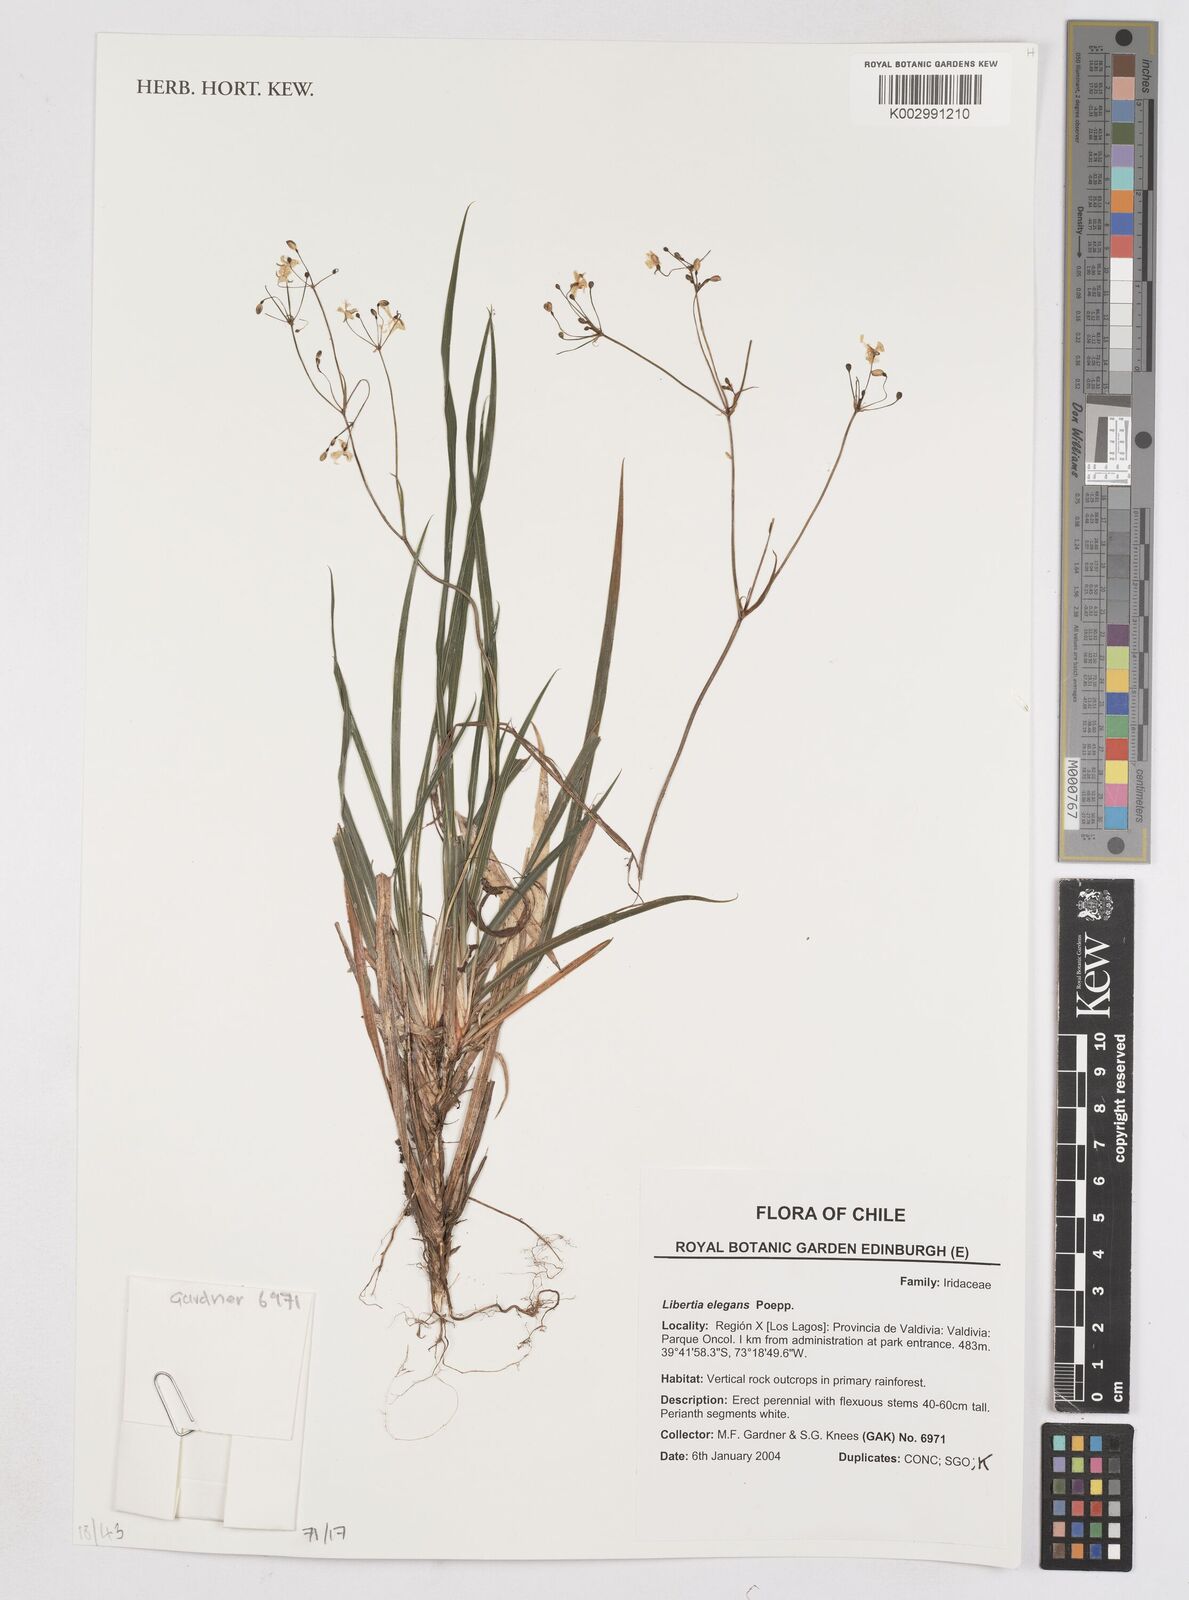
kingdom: Plantae
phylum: Tracheophyta
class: Liliopsida
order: Asparagales
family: Iridaceae
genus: Libertia
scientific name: Libertia chilensis
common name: Satin flower
